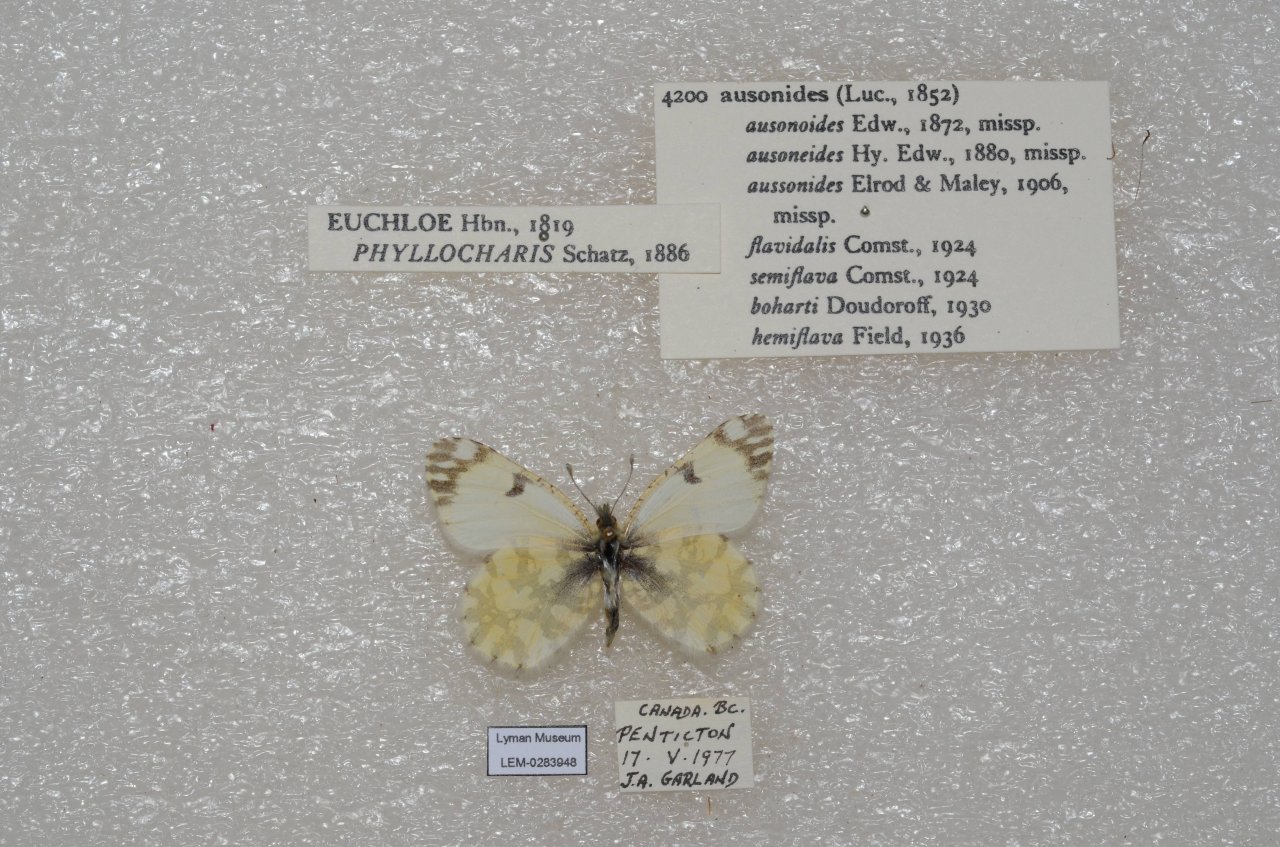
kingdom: Animalia
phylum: Arthropoda
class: Insecta
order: Lepidoptera
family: Pieridae
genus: Euchloe
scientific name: Euchloe ausonides
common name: Large Marble
